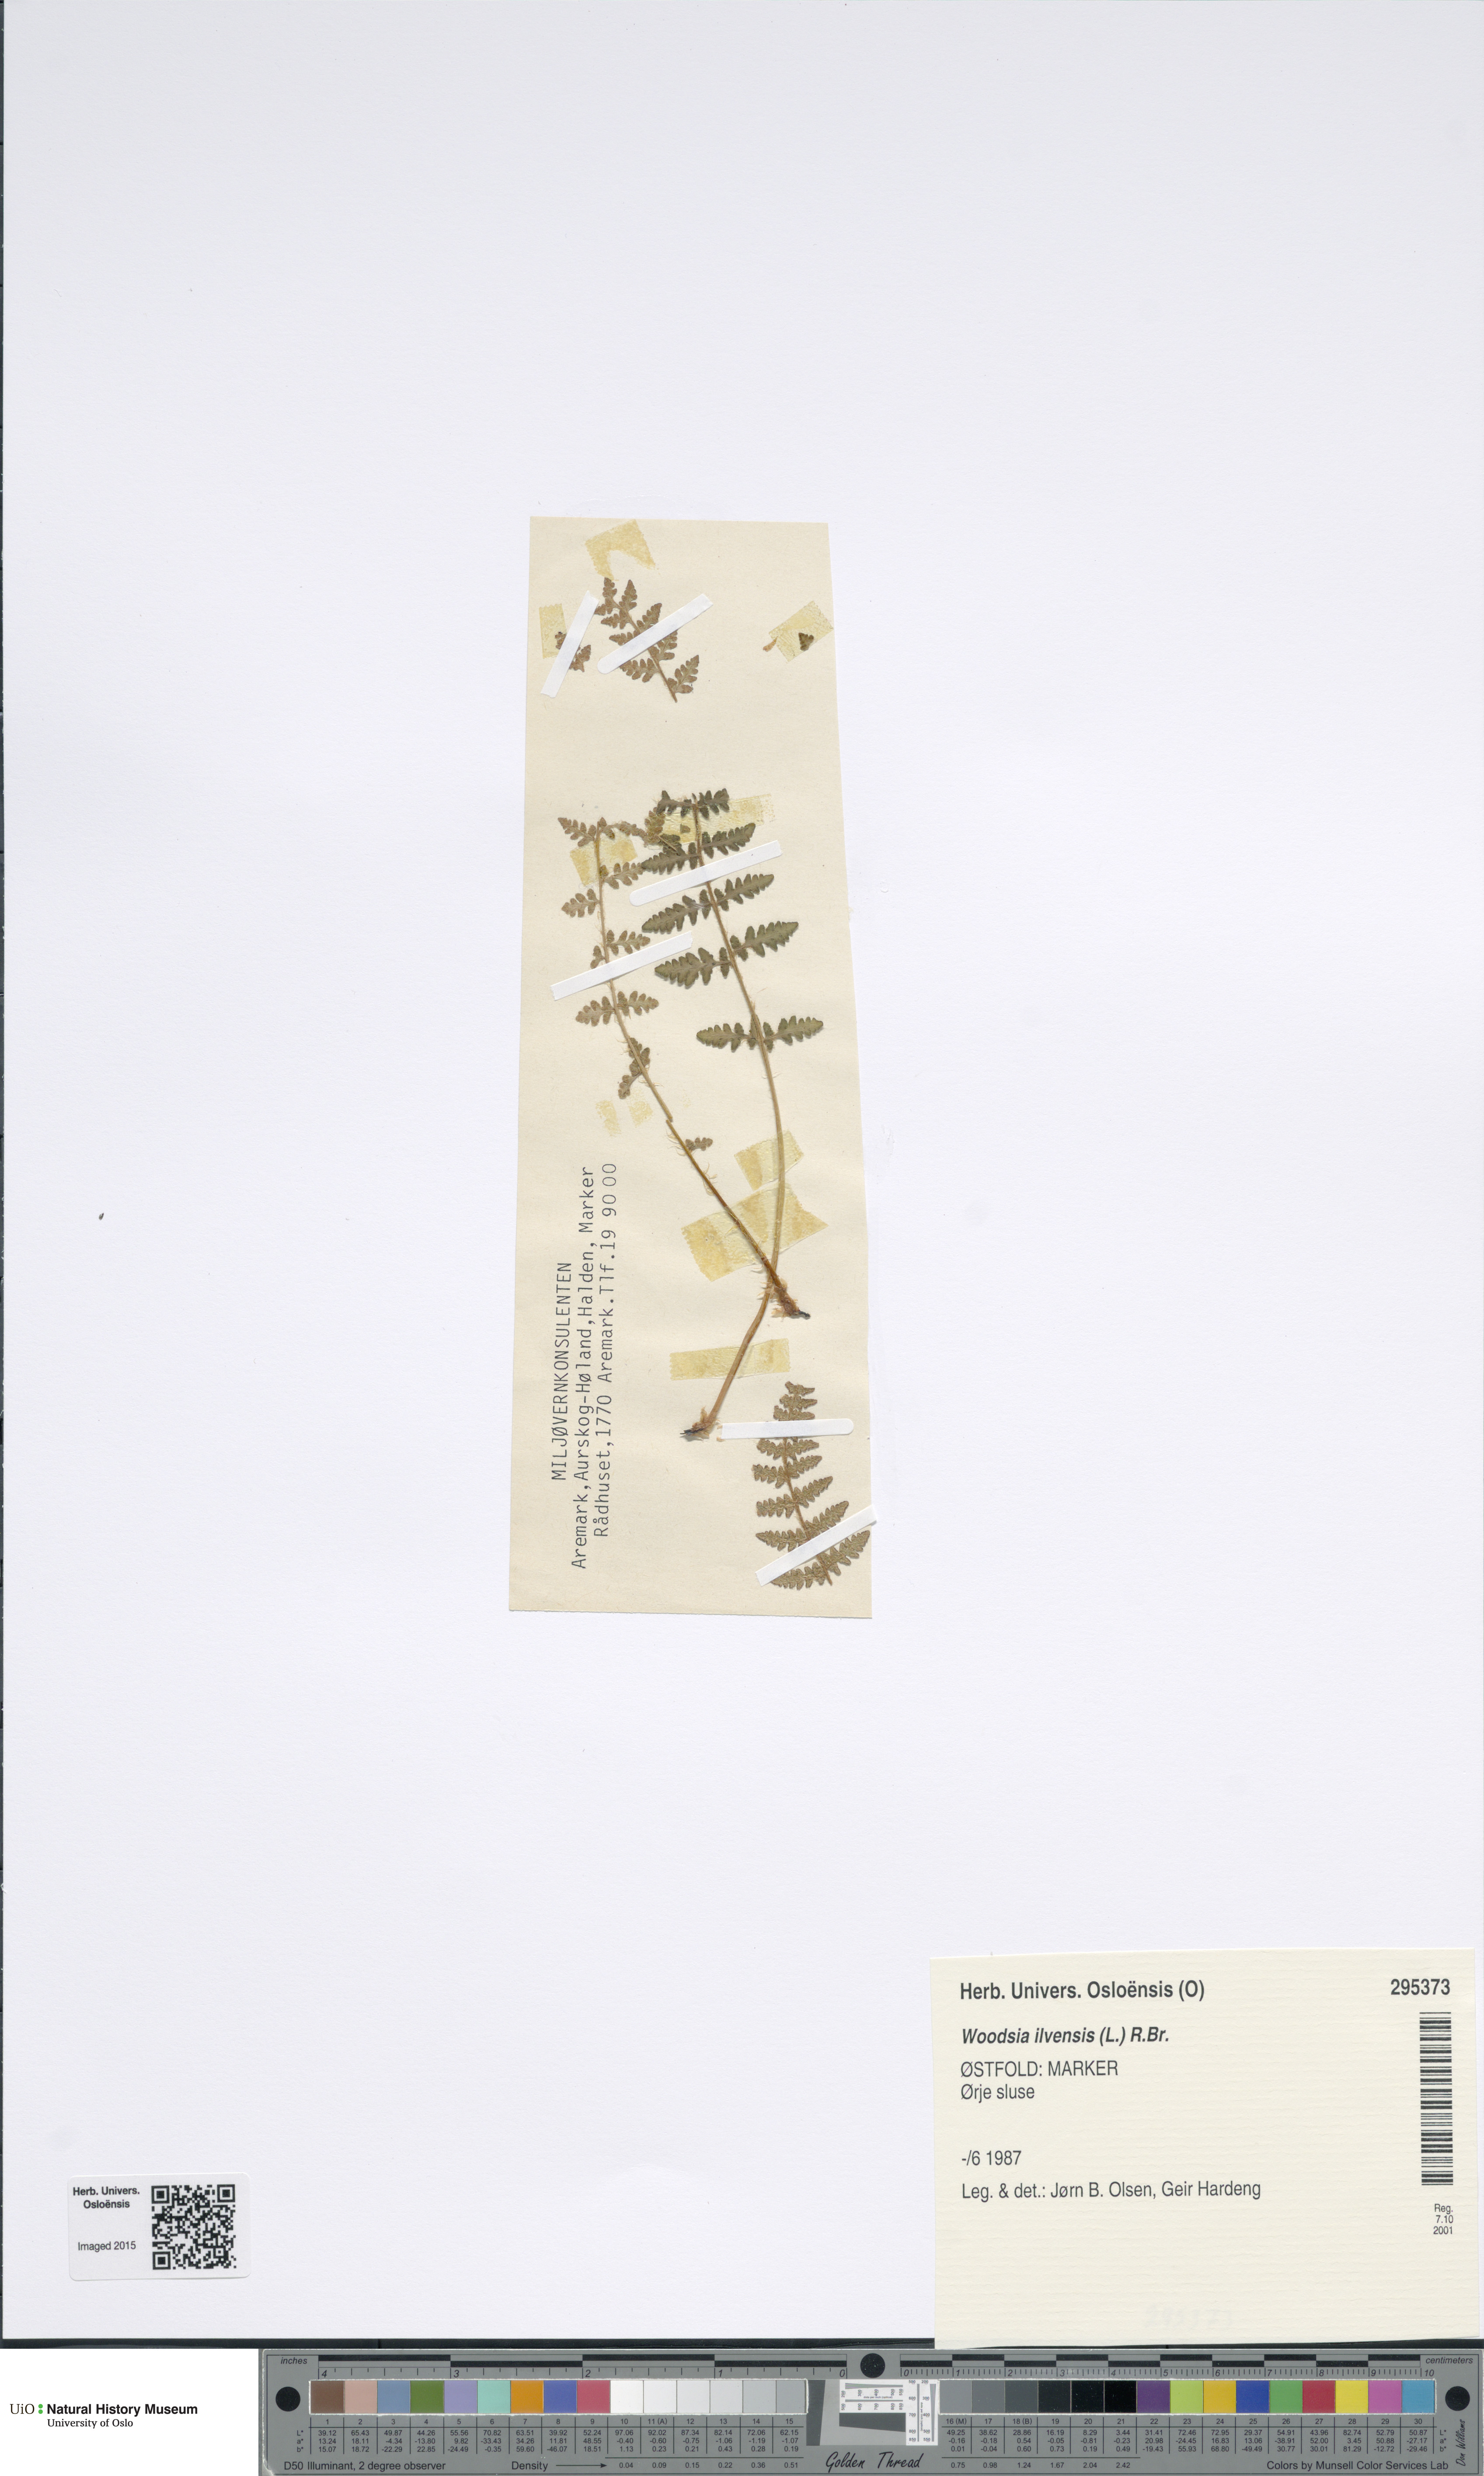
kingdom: Plantae
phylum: Tracheophyta
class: Polypodiopsida
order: Polypodiales
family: Woodsiaceae
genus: Woodsia
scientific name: Woodsia ilvensis
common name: Fragrant woodsia
